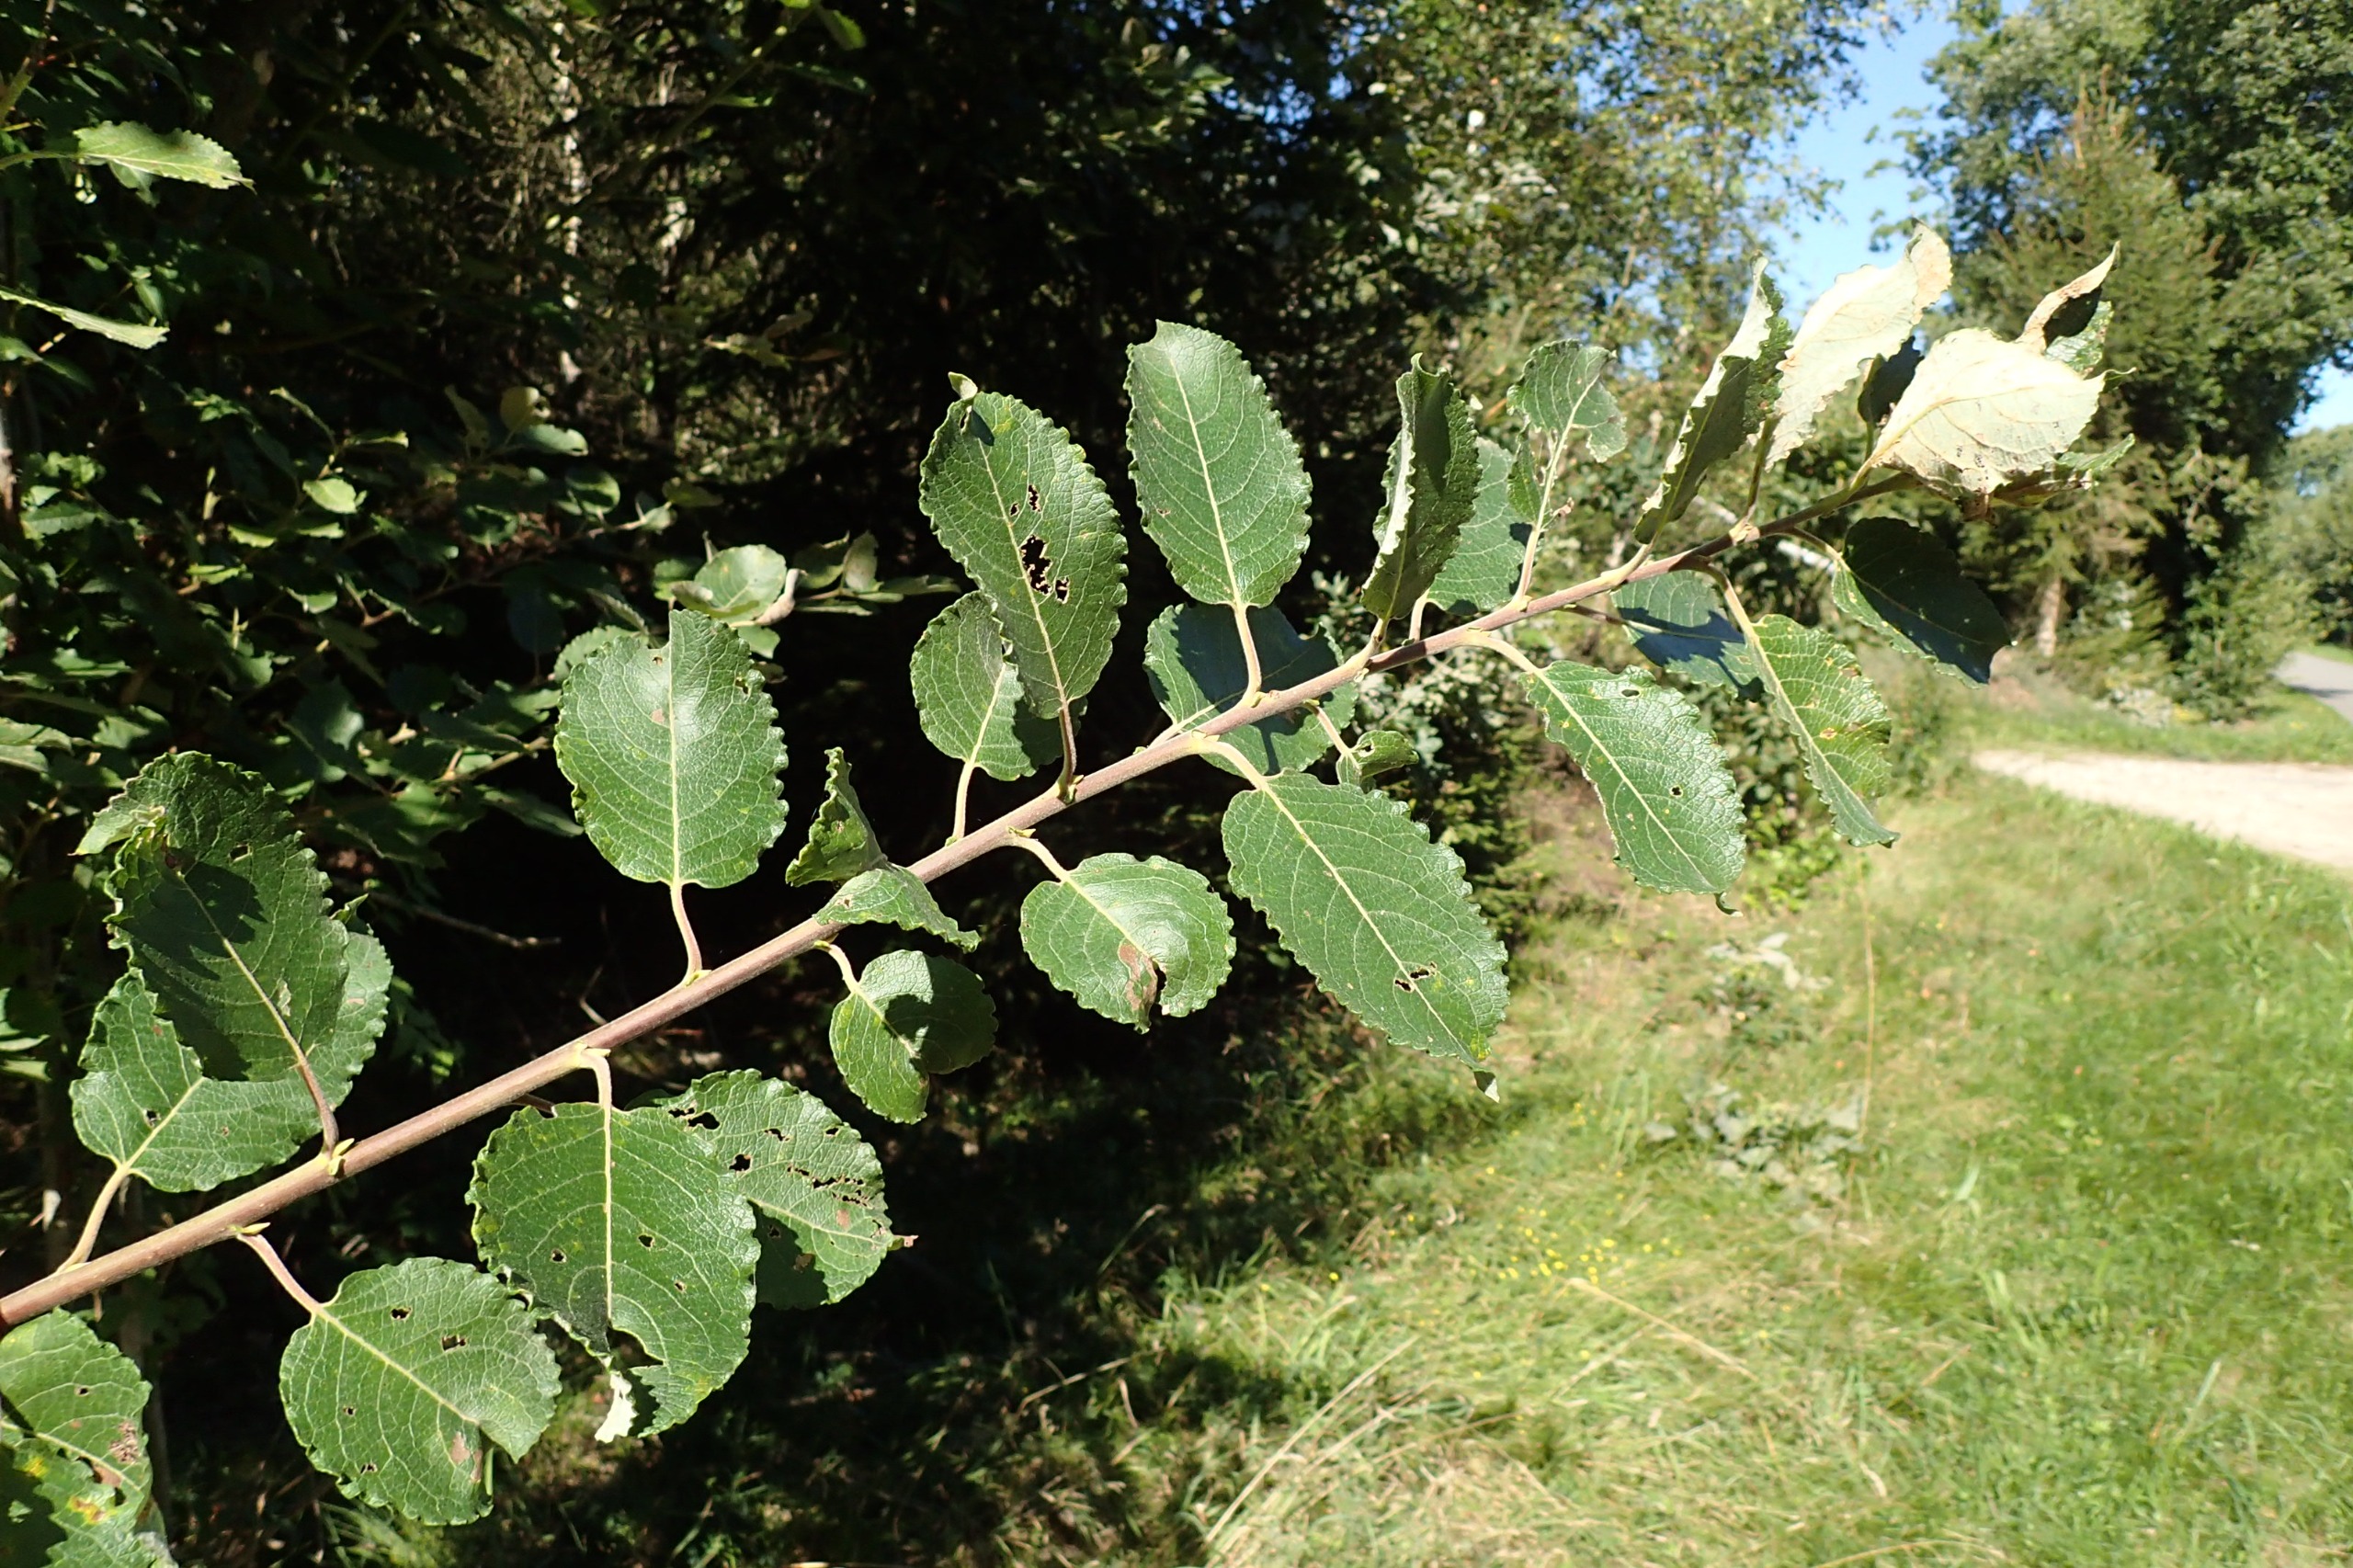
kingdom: Plantae
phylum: Tracheophyta
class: Magnoliopsida
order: Malpighiales
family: Salicaceae
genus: Salix
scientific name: Salix
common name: Øret pil × selje-pil
